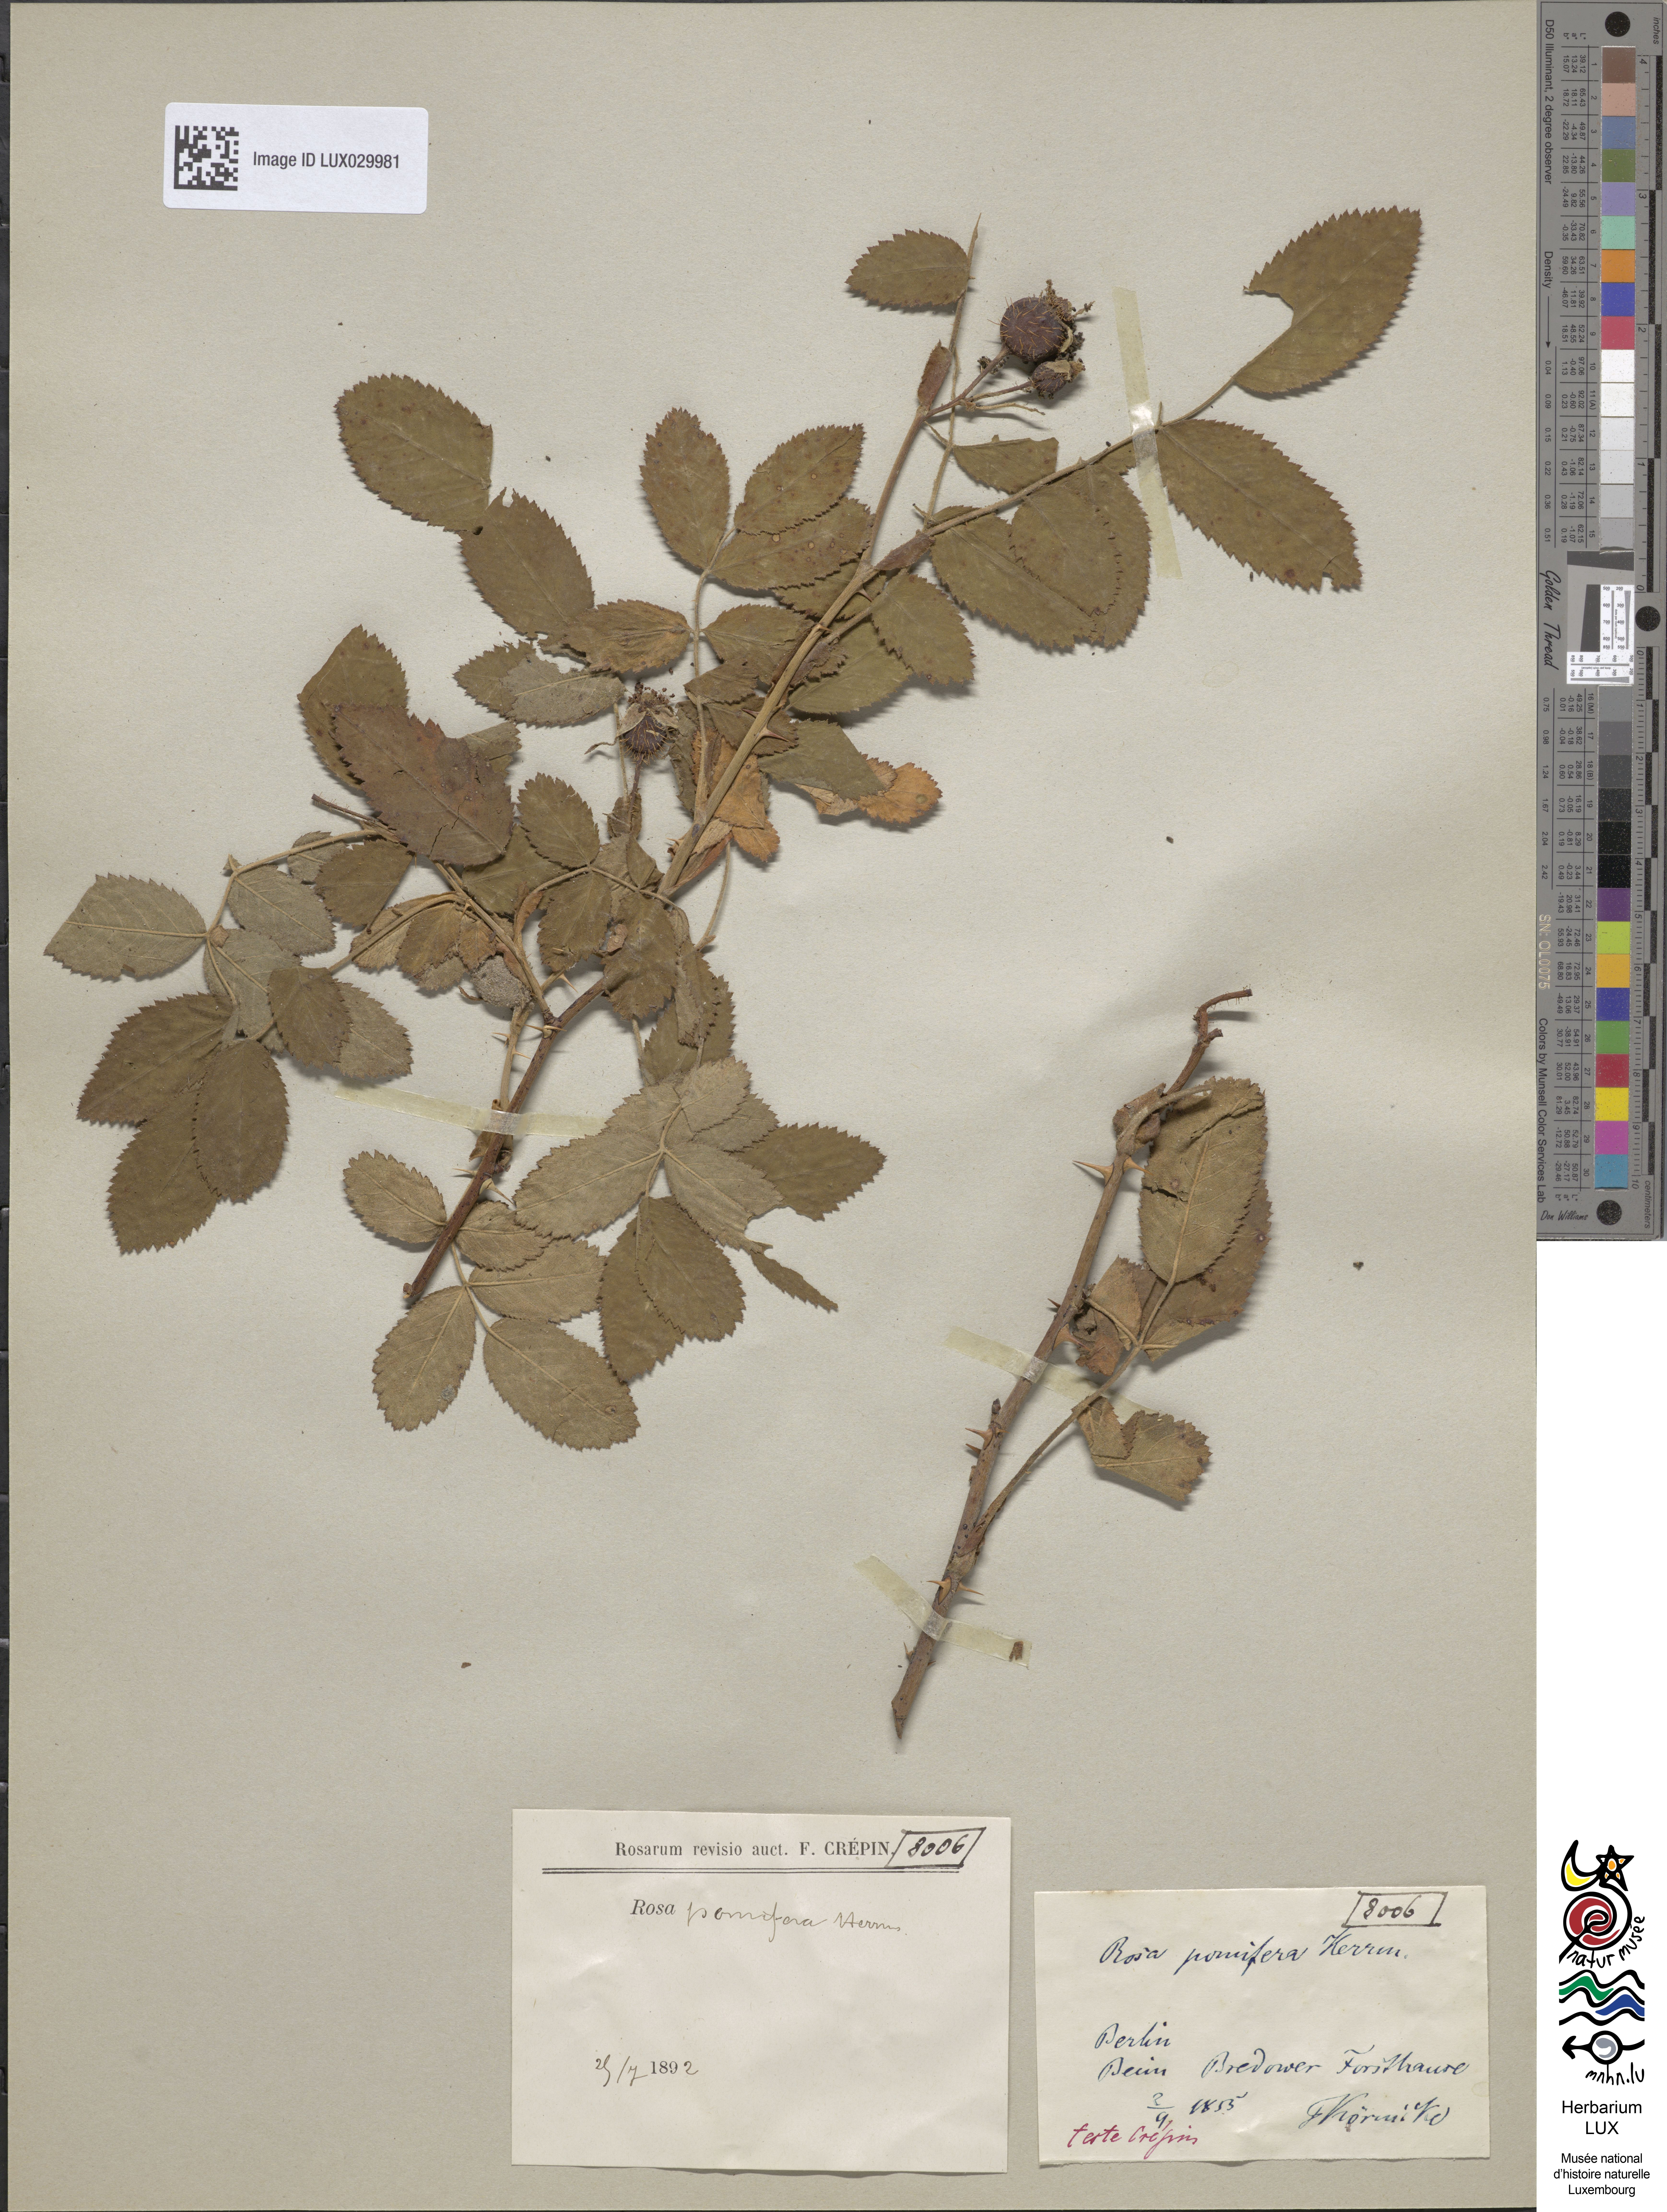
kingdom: Plantae
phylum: Tracheophyta
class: Magnoliopsida
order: Rosales
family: Rosaceae
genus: Rosa
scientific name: Rosa villosa
